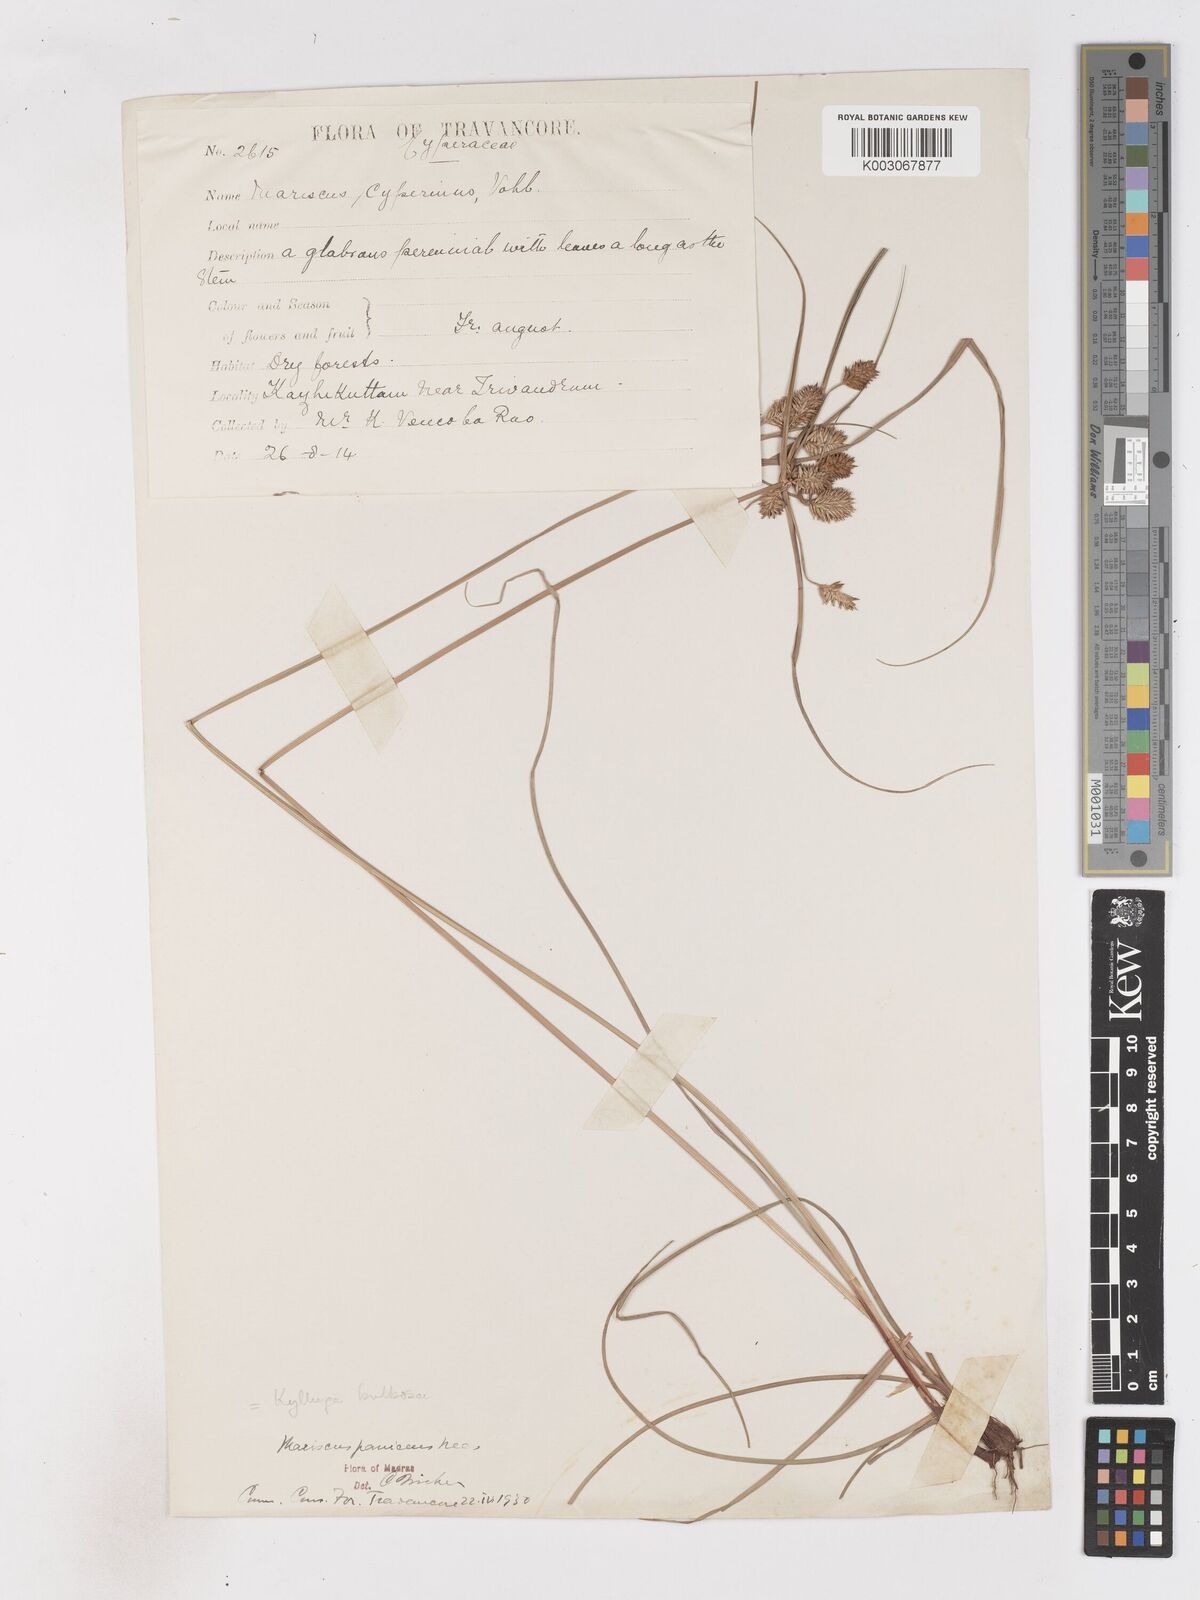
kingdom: Plantae
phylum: Tracheophyta
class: Liliopsida
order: Poales
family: Cyperaceae
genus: Cyperus
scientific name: Cyperus
